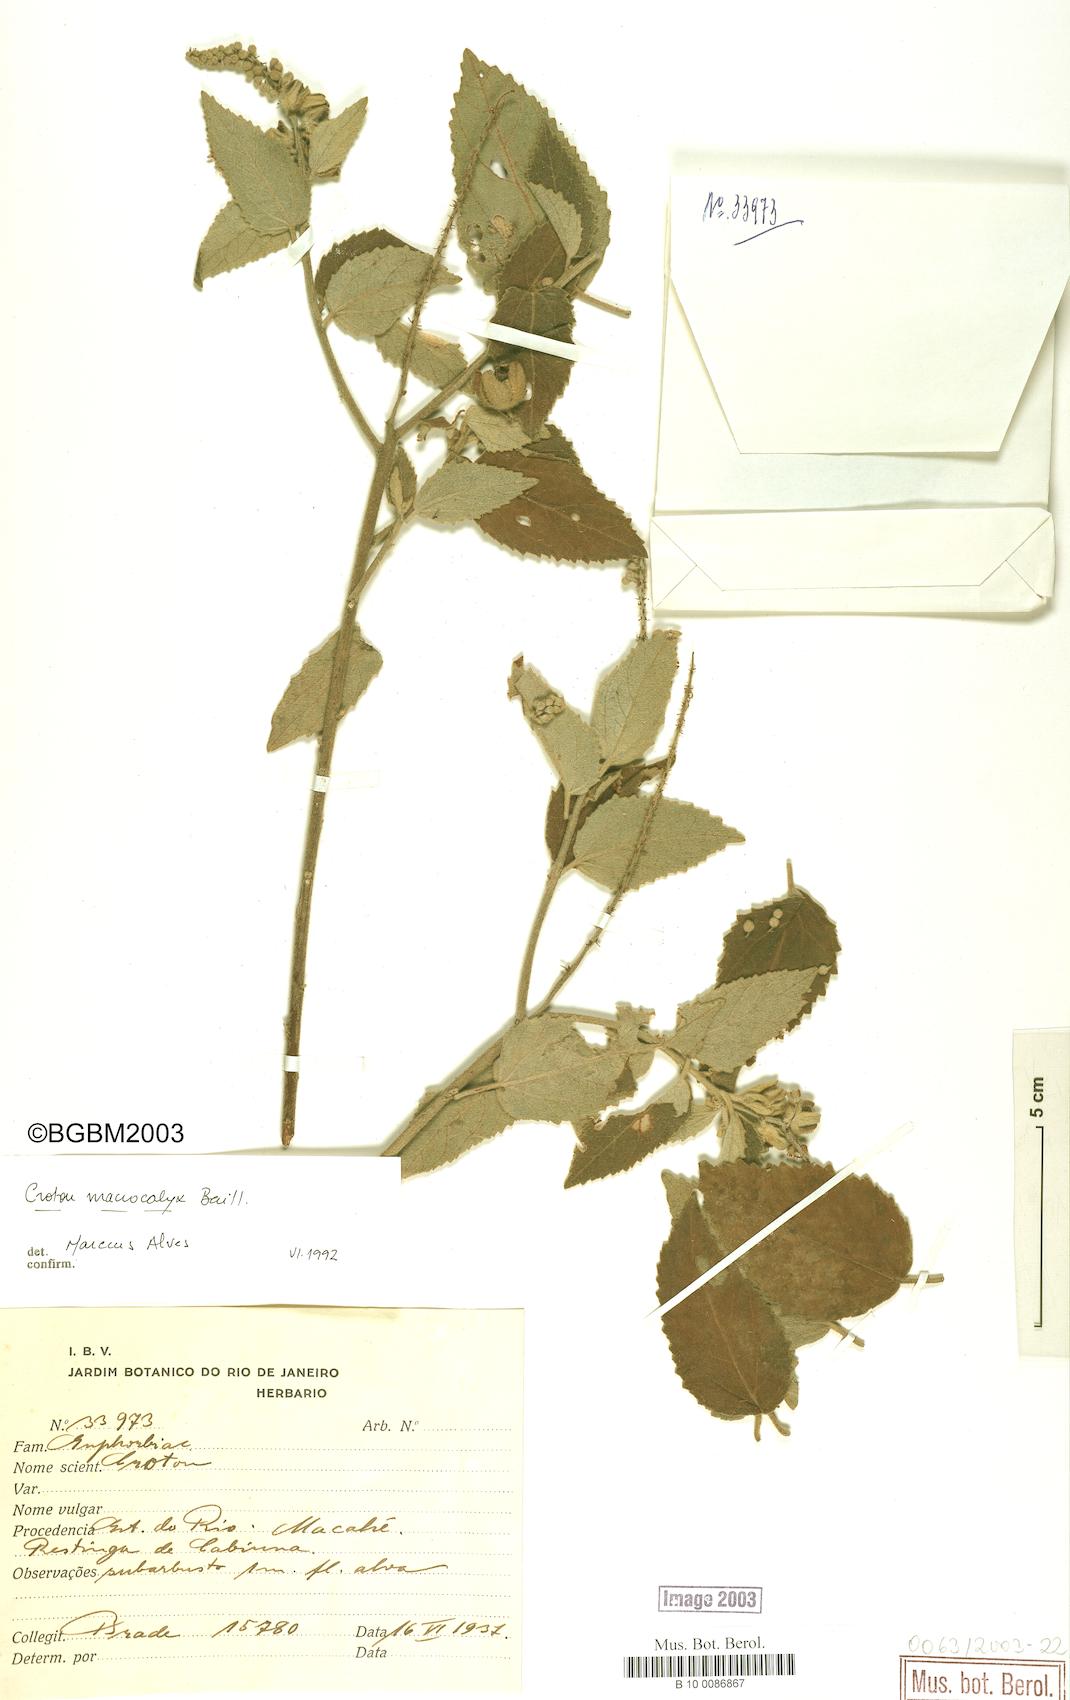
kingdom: Plantae
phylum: Tracheophyta
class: Magnoliopsida
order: Malpighiales
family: Euphorbiaceae
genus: Croton
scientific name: Croton macrocalyx
